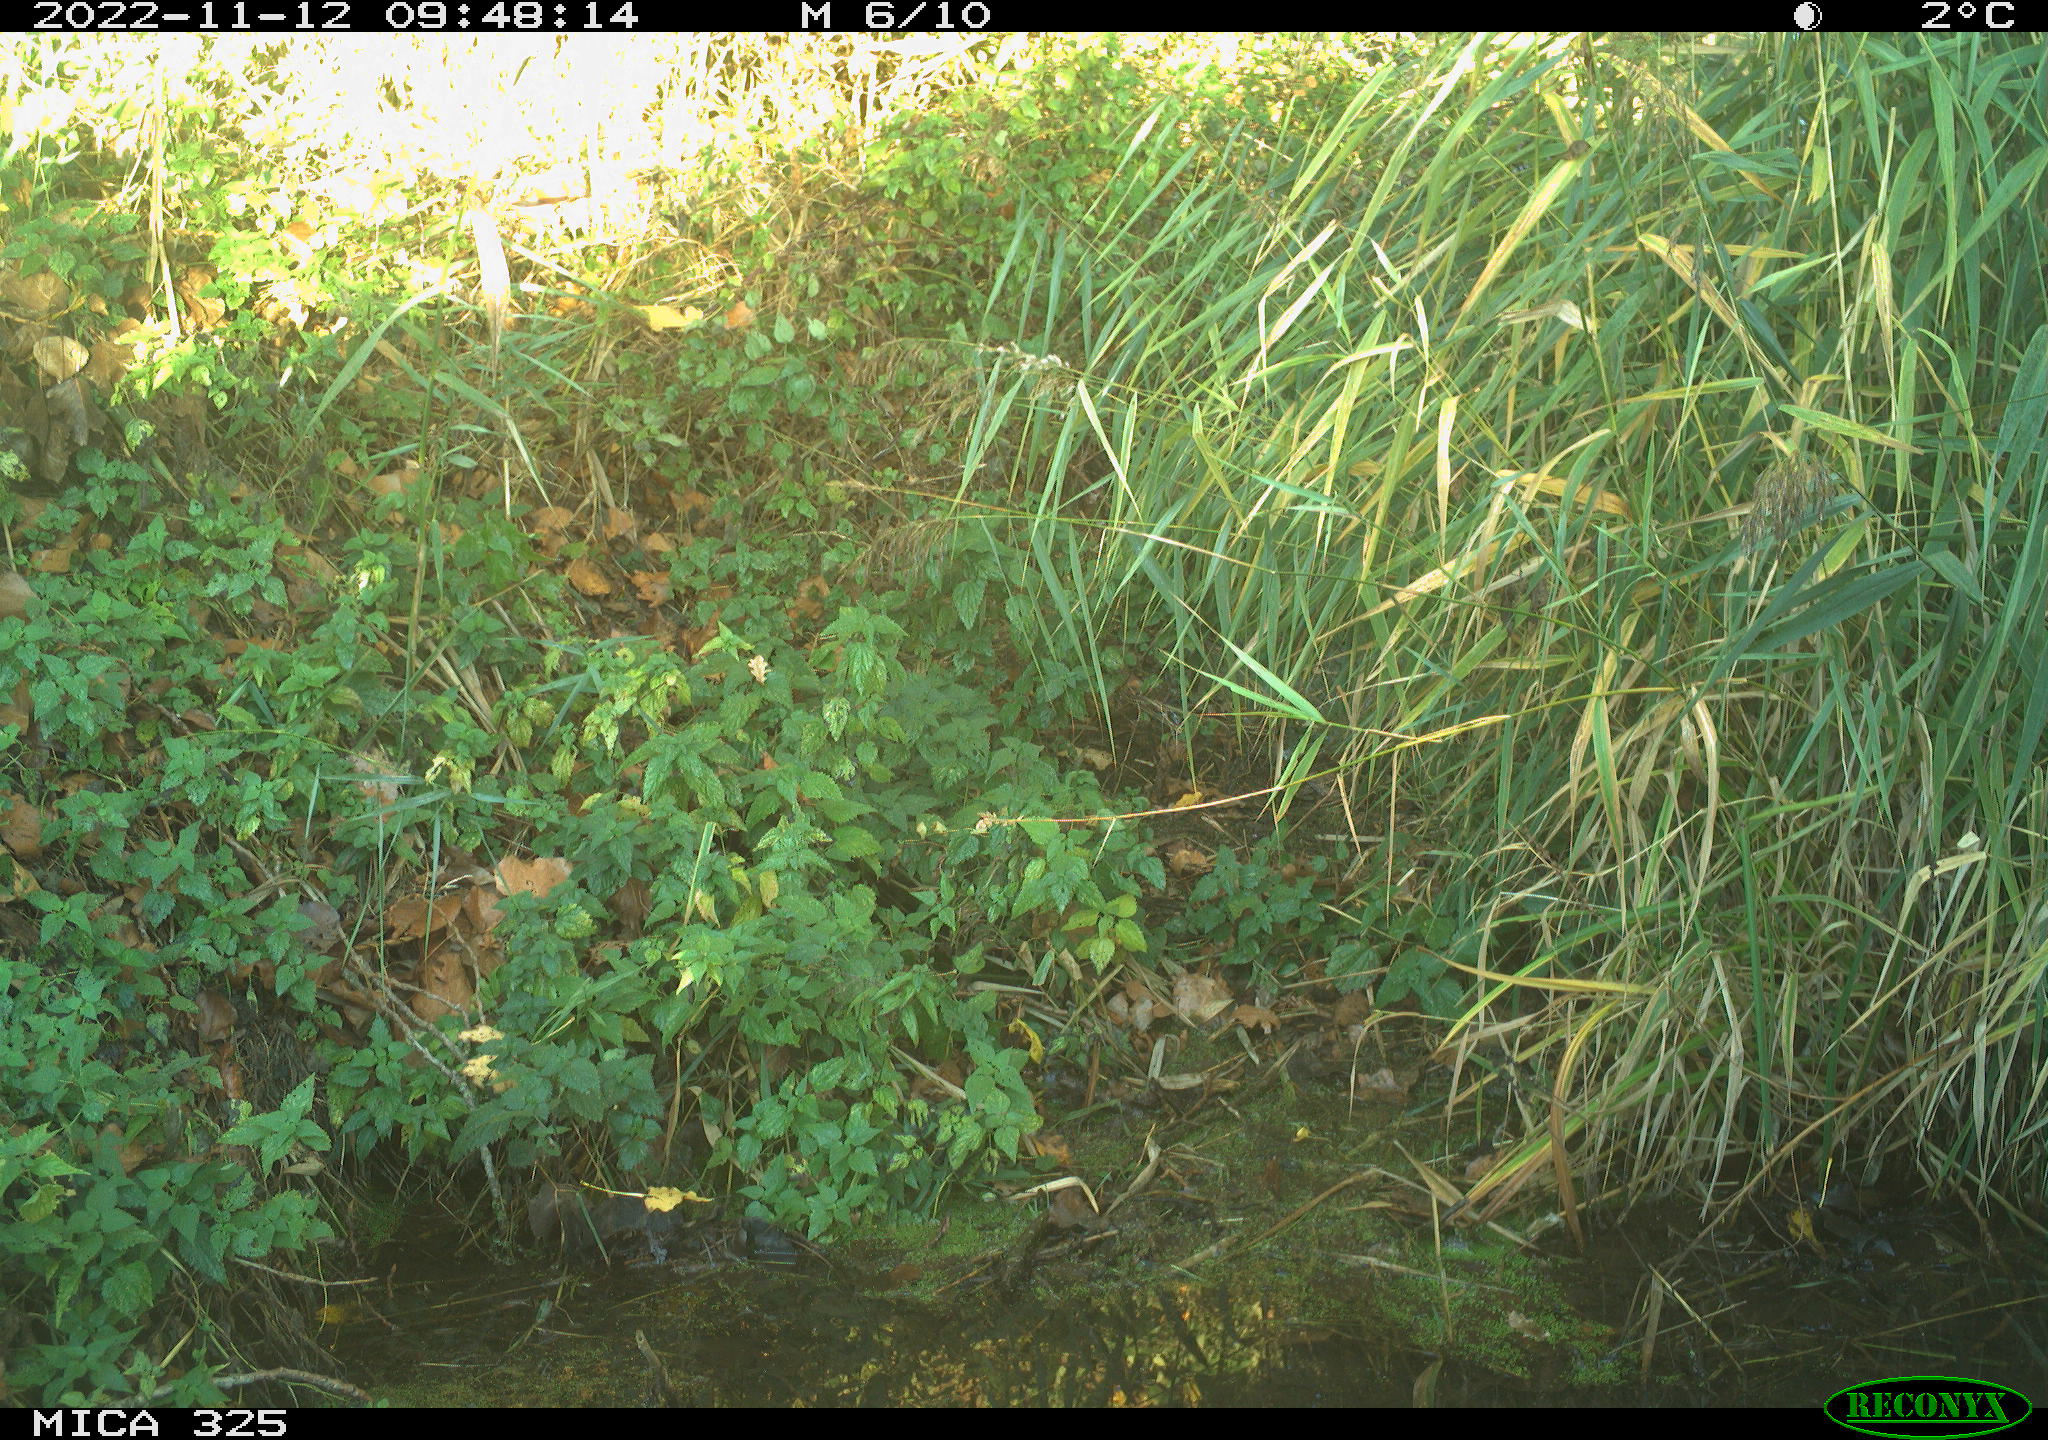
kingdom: Animalia
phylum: Chordata
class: Aves
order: Passeriformes
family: Paridae
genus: Parus
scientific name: Parus major
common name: Great tit
